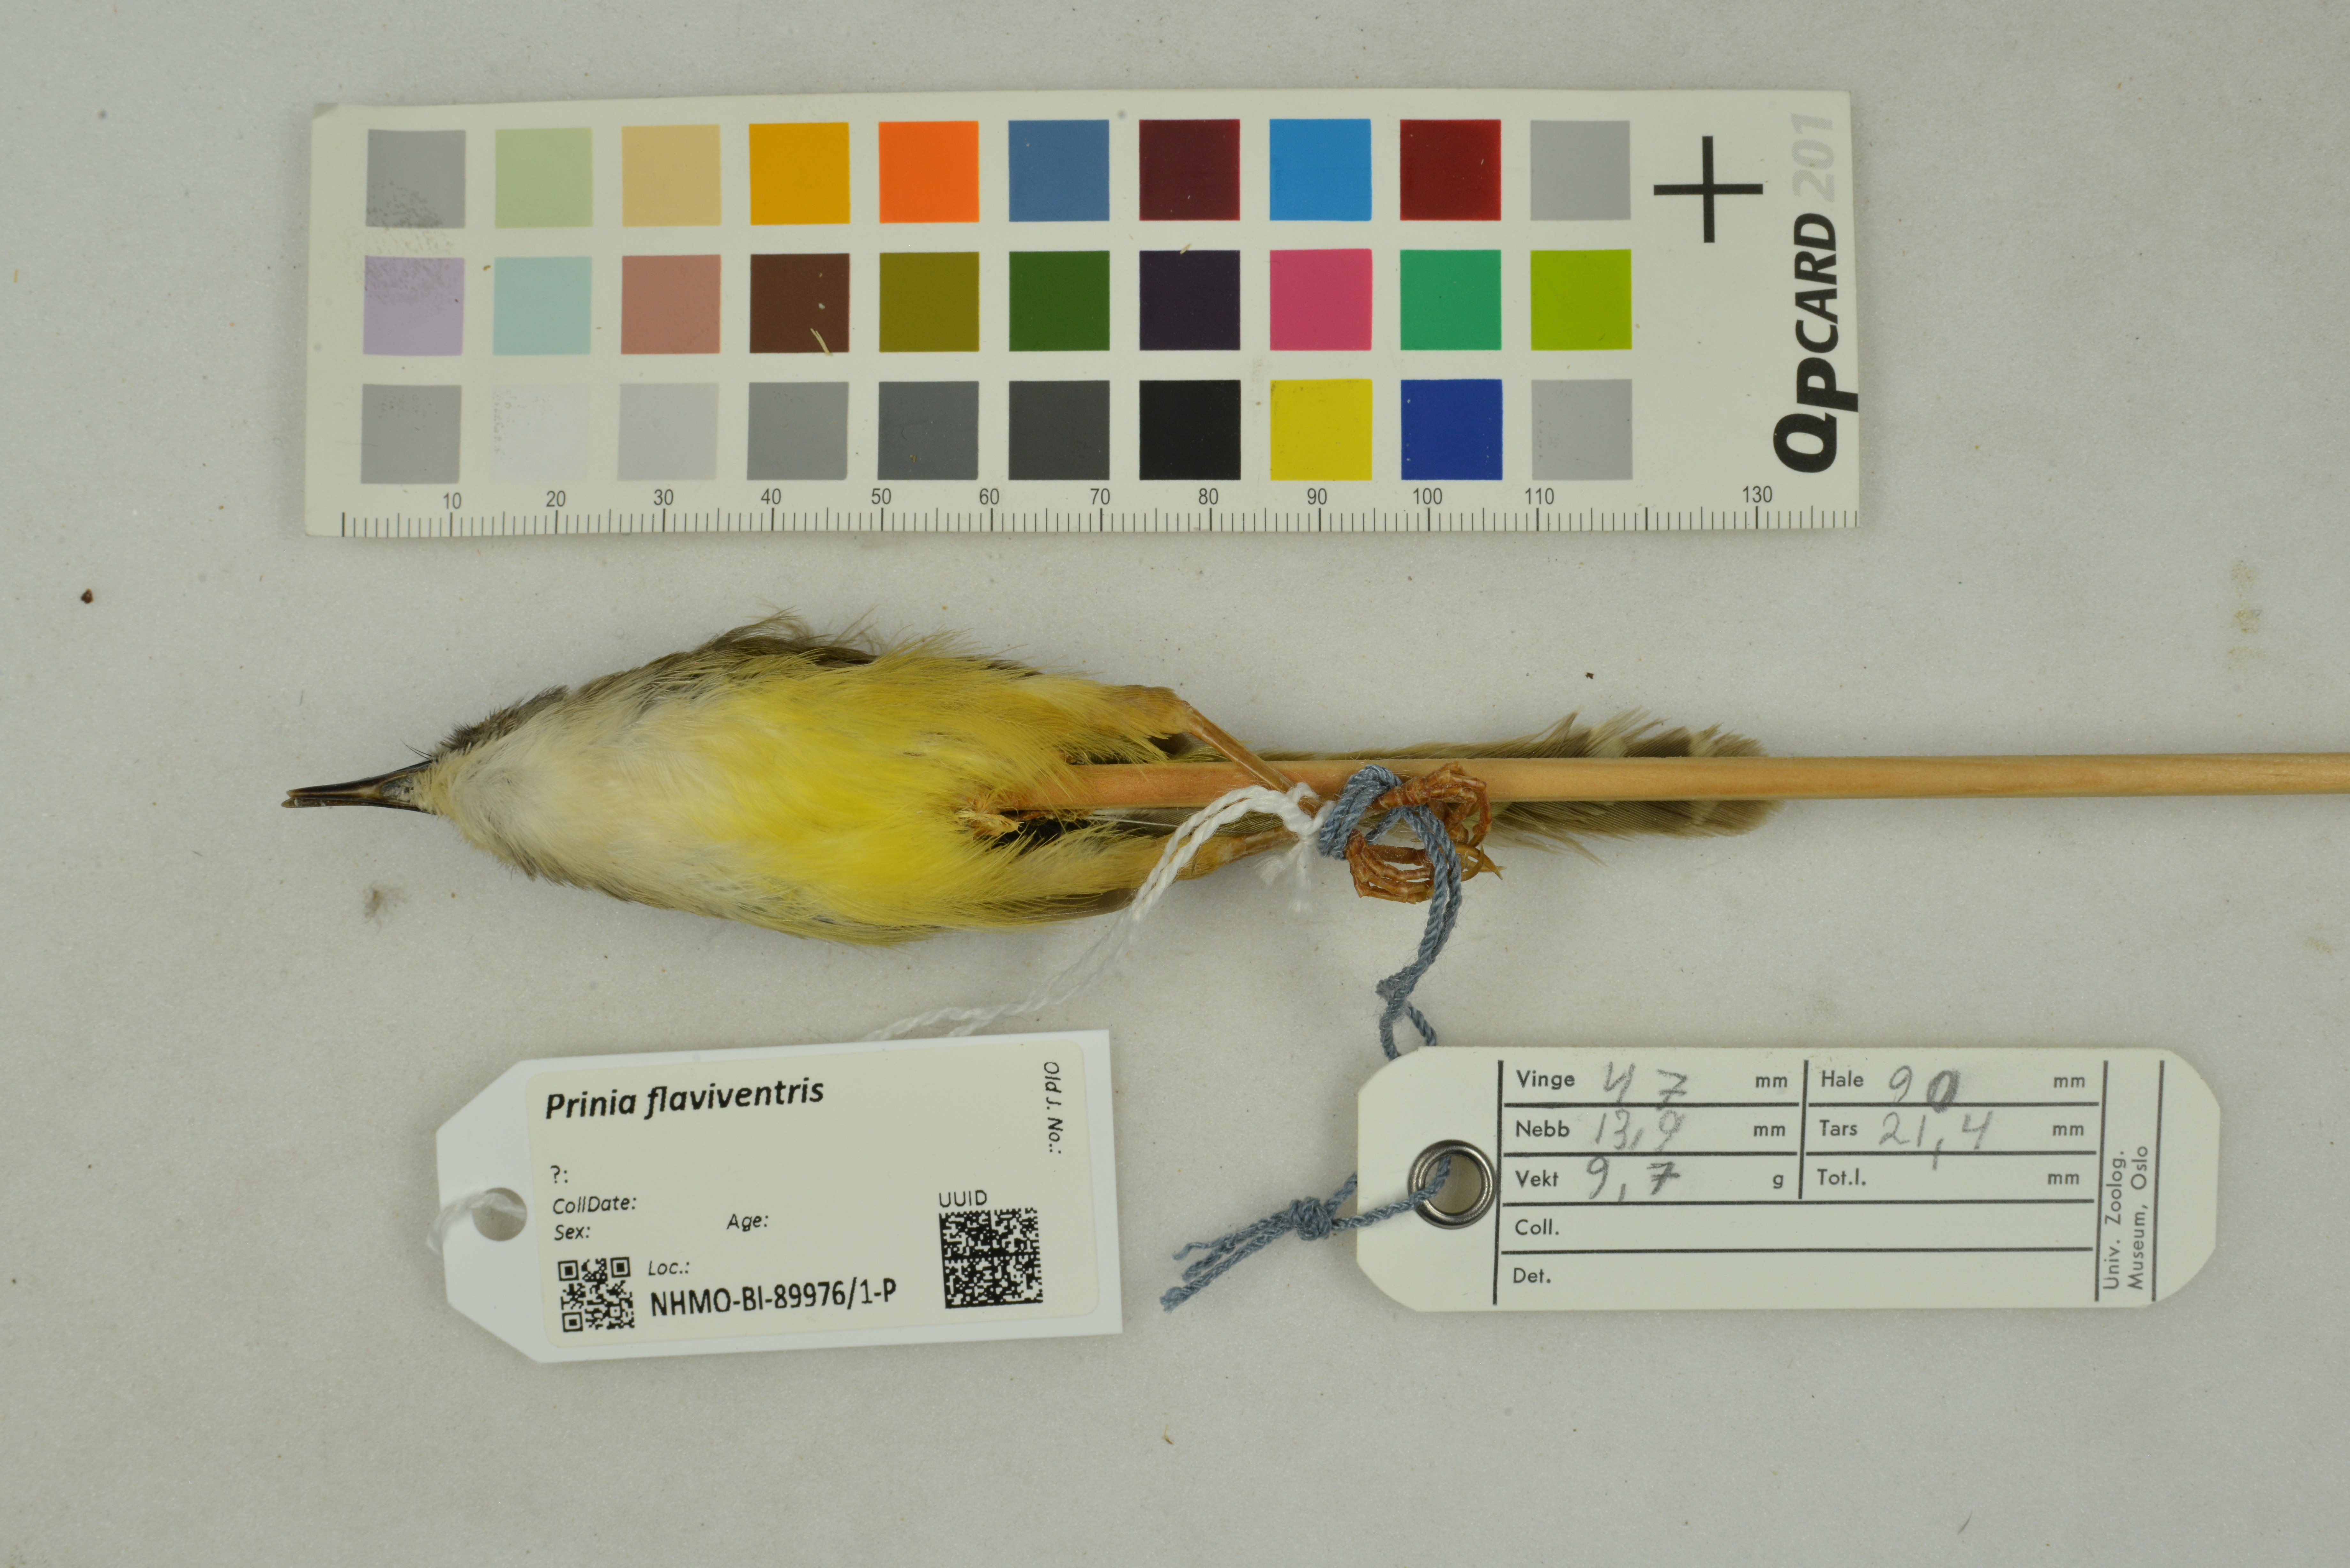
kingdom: Animalia
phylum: Chordata
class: Aves
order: Passeriformes
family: Cisticolidae
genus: Prinia
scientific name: Prinia flaviventris
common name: Yellow-bellied prinia
